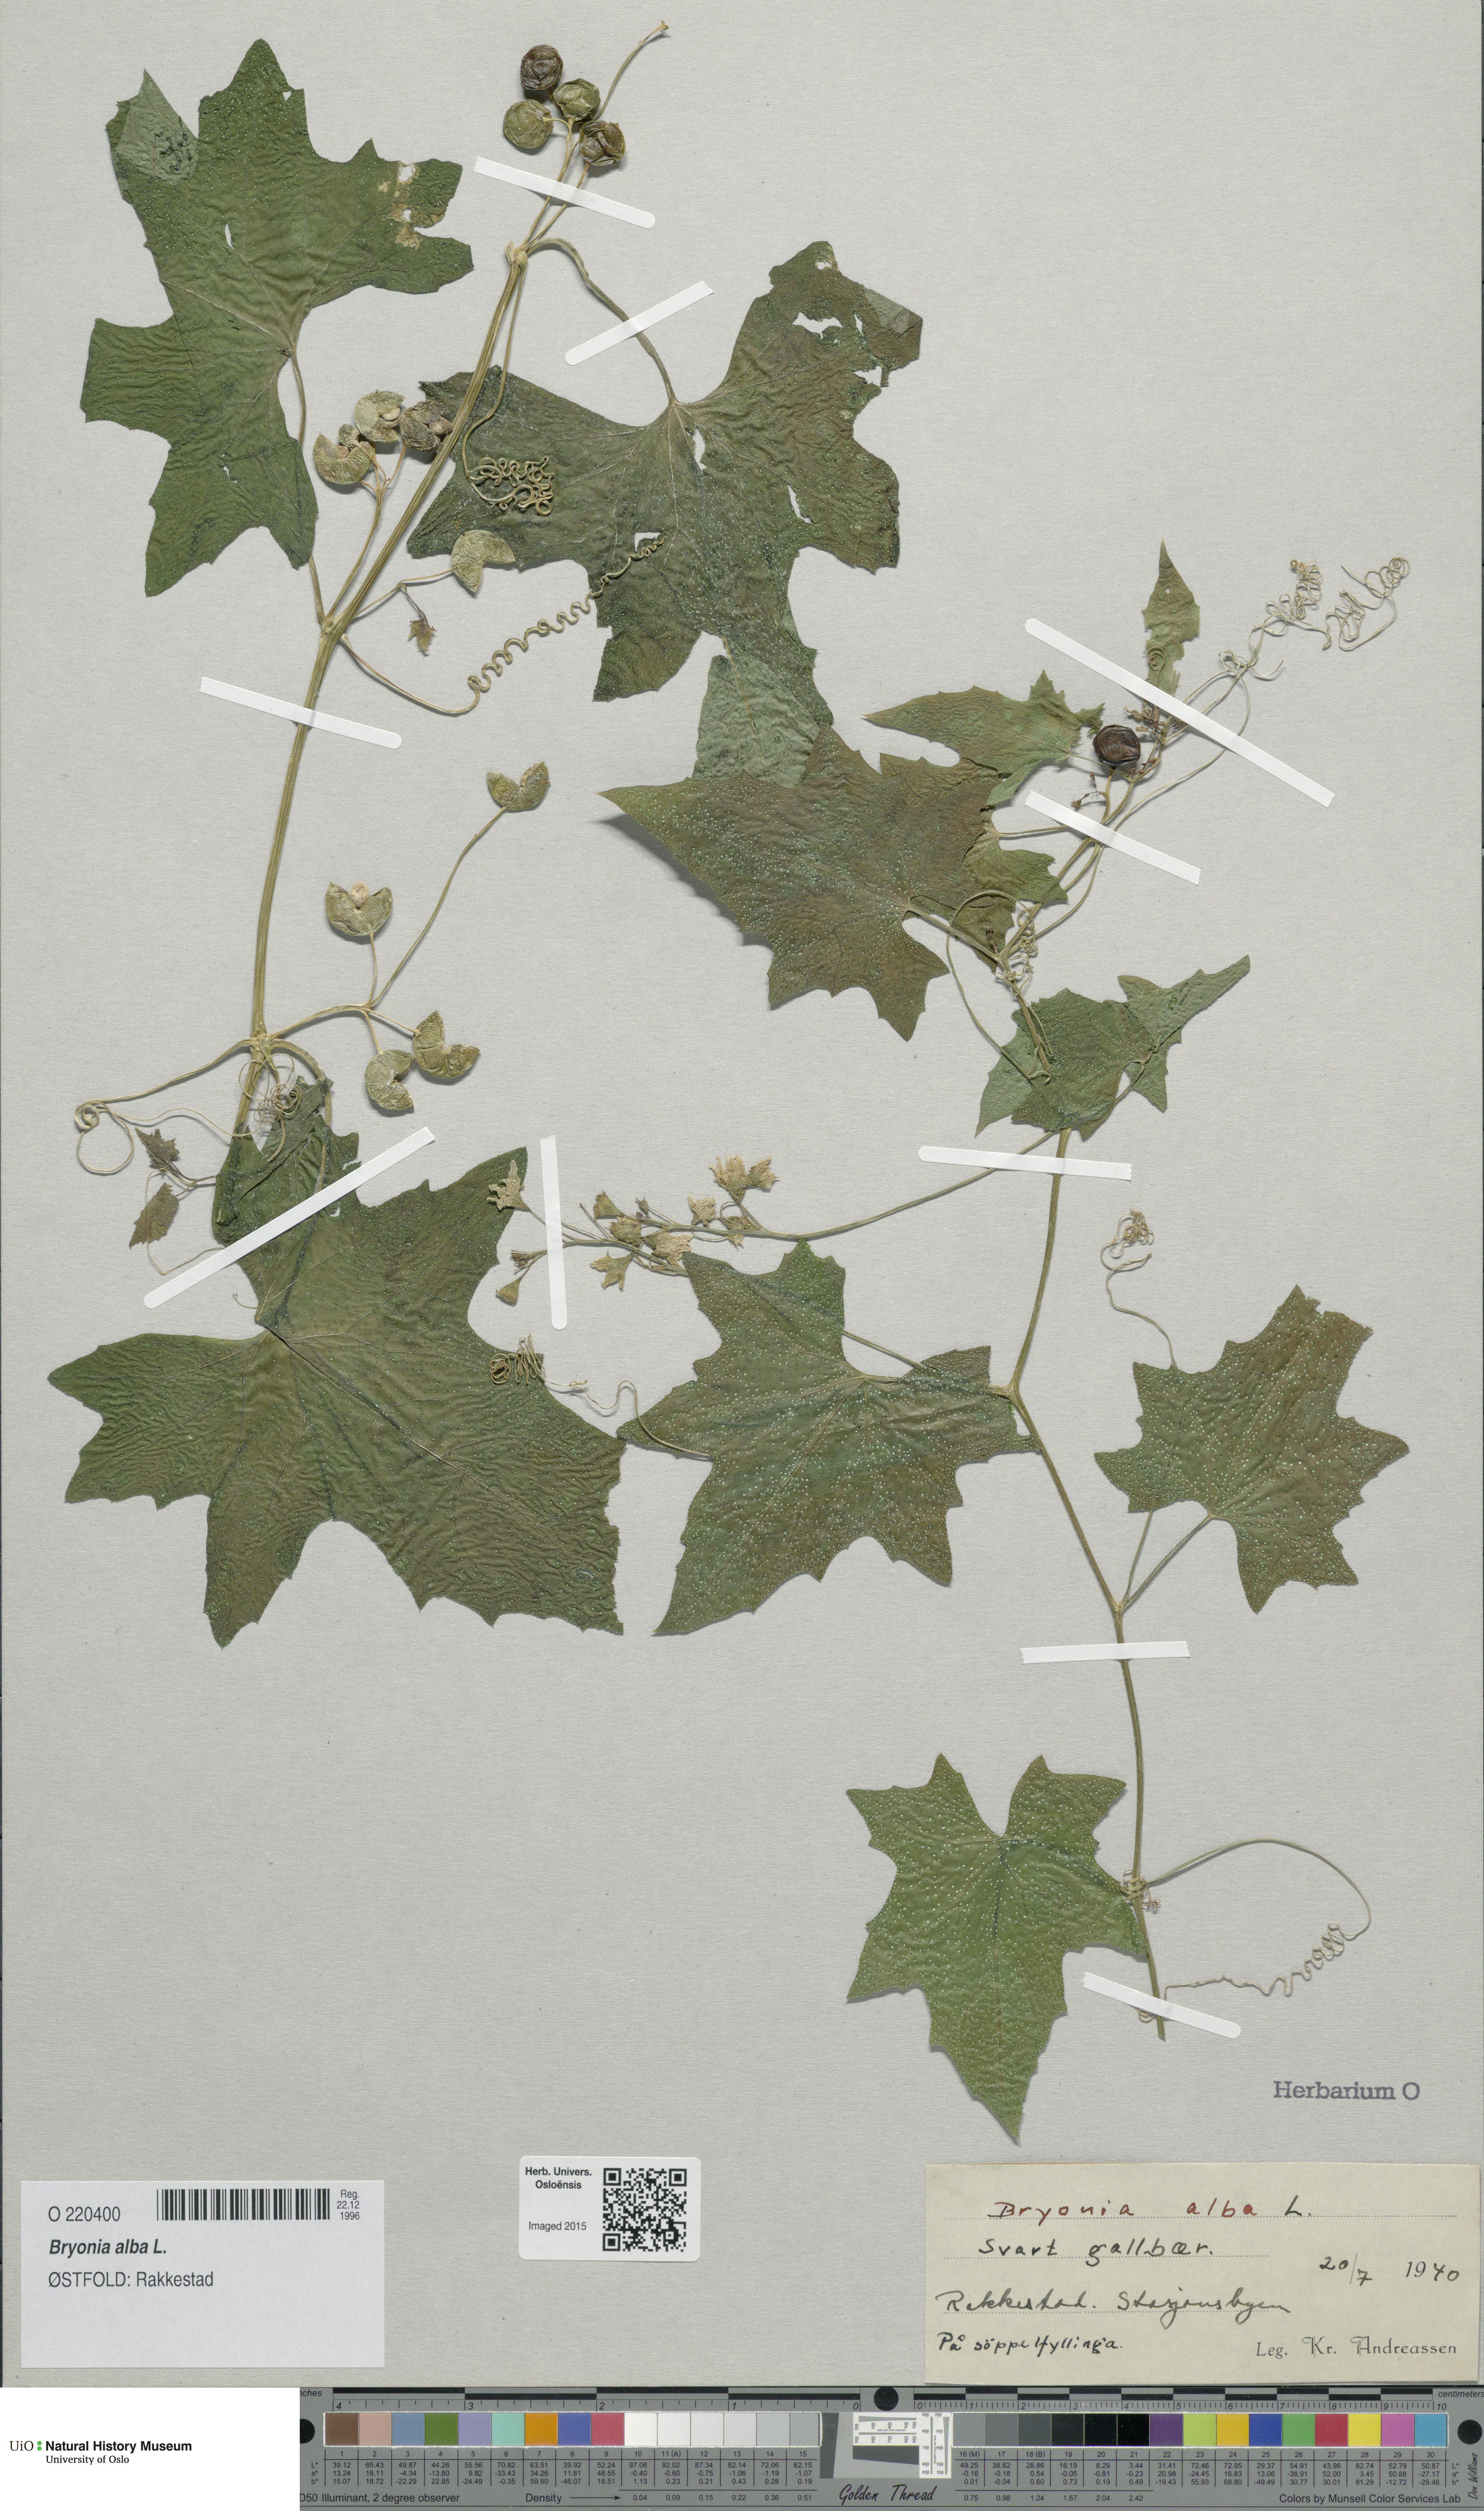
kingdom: Plantae
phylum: Tracheophyta
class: Magnoliopsida
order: Cucurbitales
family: Cucurbitaceae
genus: Bryonia
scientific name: Bryonia alba
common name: White bryony
